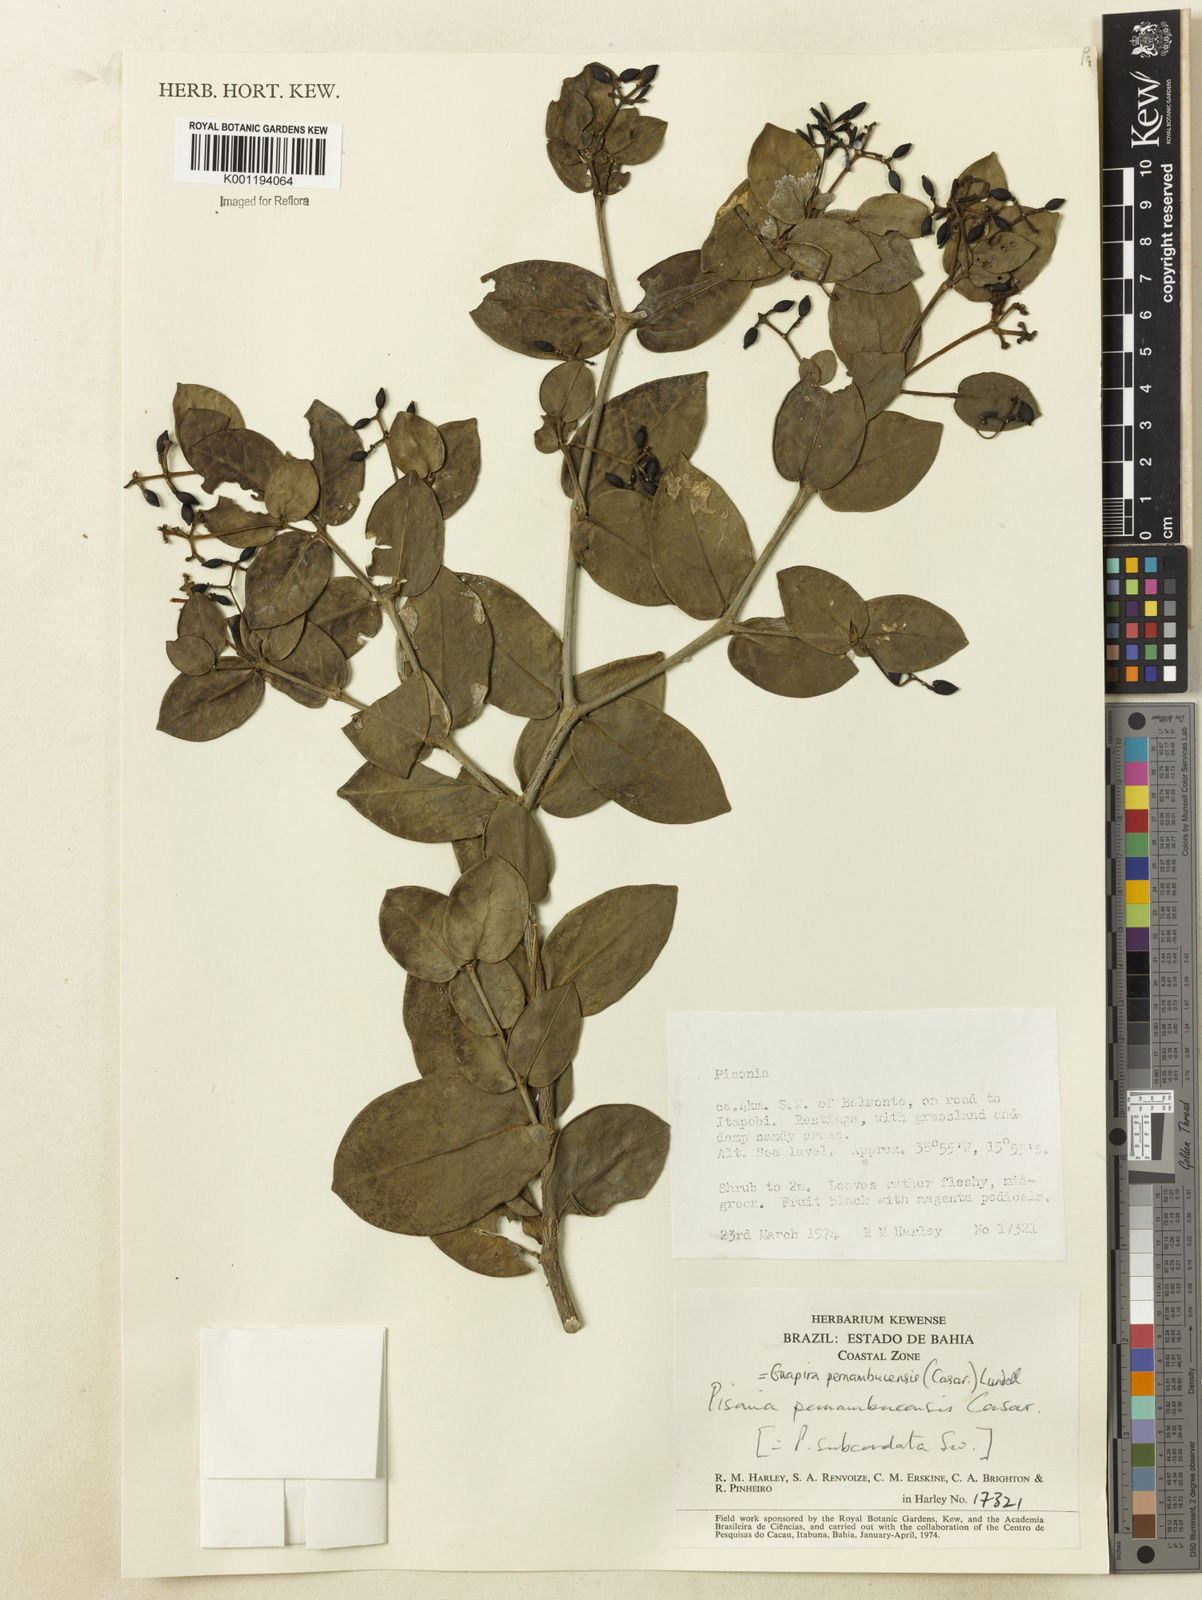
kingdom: Plantae
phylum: Tracheophyta
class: Magnoliopsida
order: Caryophyllales
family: Nyctaginaceae
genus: Guapira
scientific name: Guapira pernambucensis
